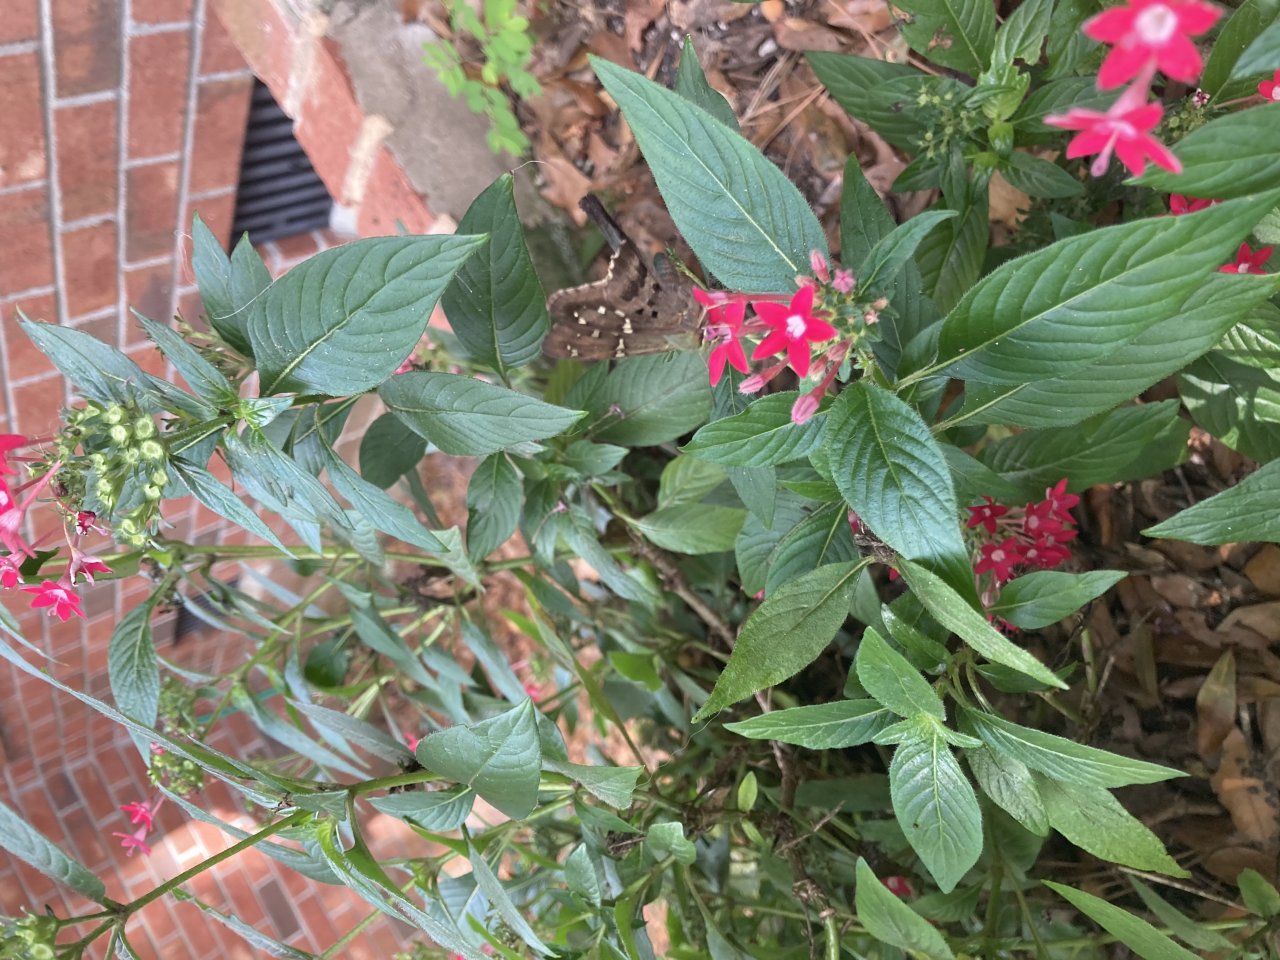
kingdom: Animalia
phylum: Arthropoda
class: Insecta
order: Lepidoptera
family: Hesperiidae
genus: Urbanus
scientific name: Urbanus proteus
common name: Long-tailed Skipper
